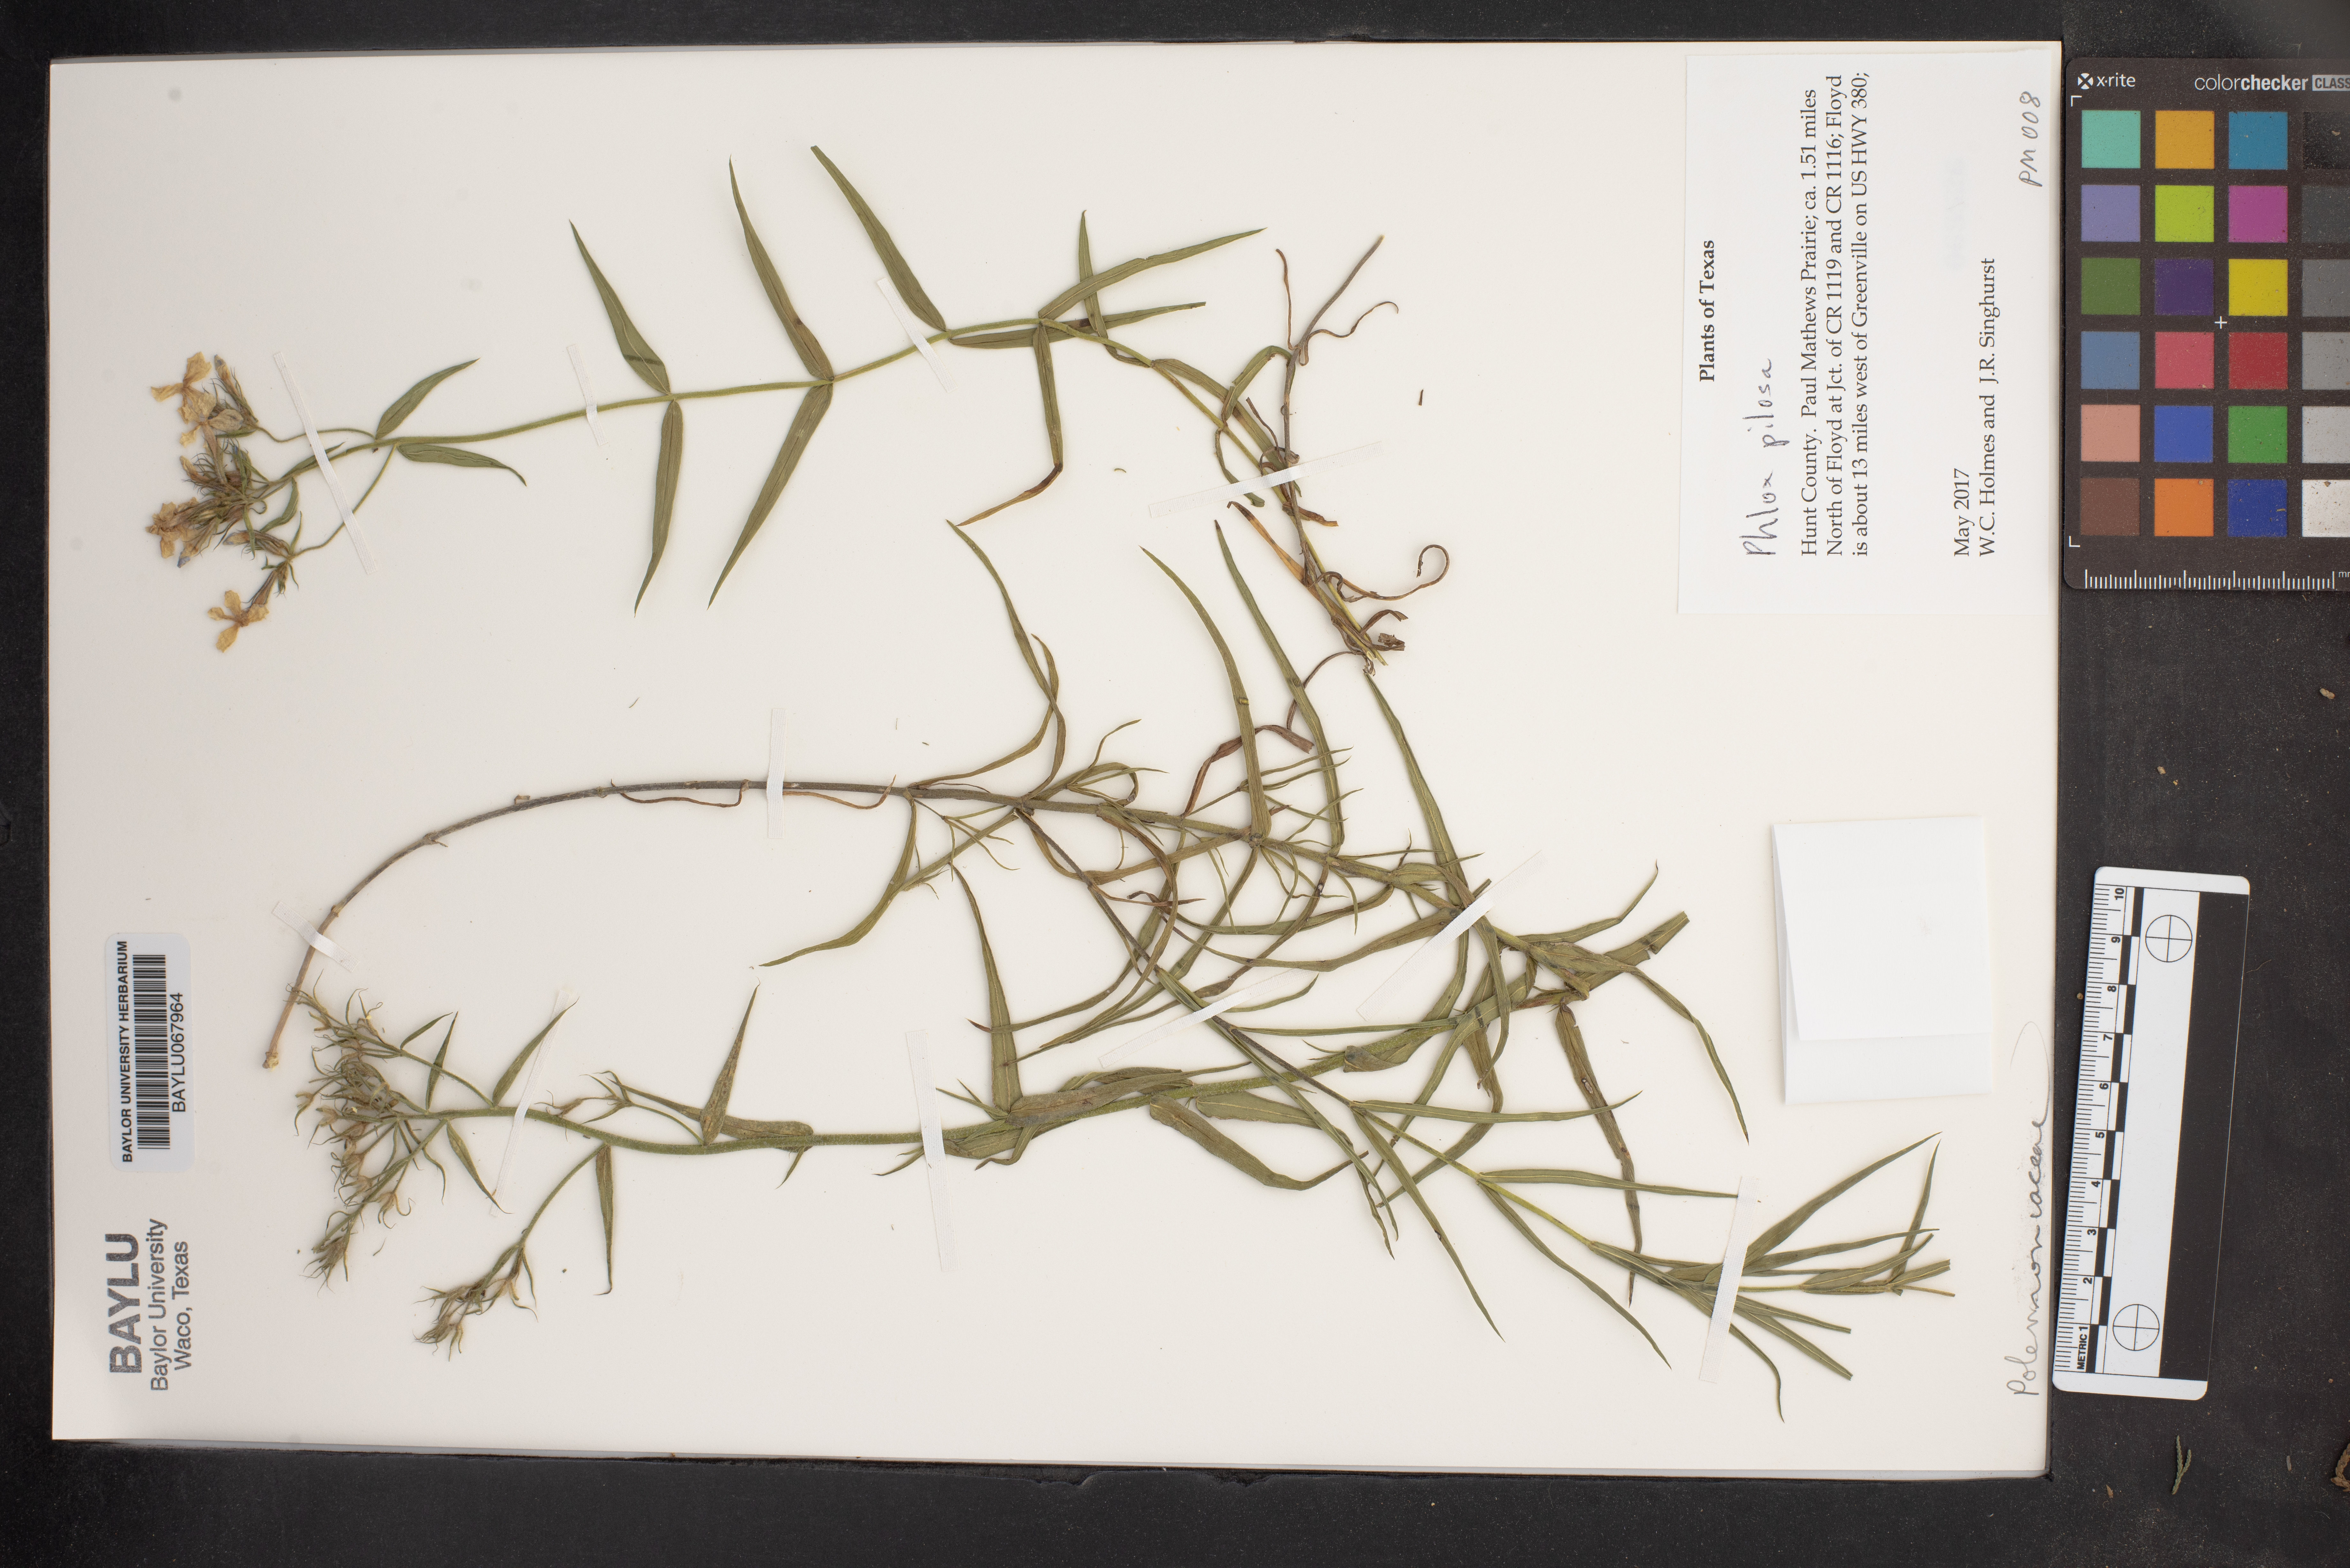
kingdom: Plantae
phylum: Tracheophyta
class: Magnoliopsida
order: Ericales
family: Polemoniaceae
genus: Phlox
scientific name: Phlox pilosa
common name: Prairie phlox
